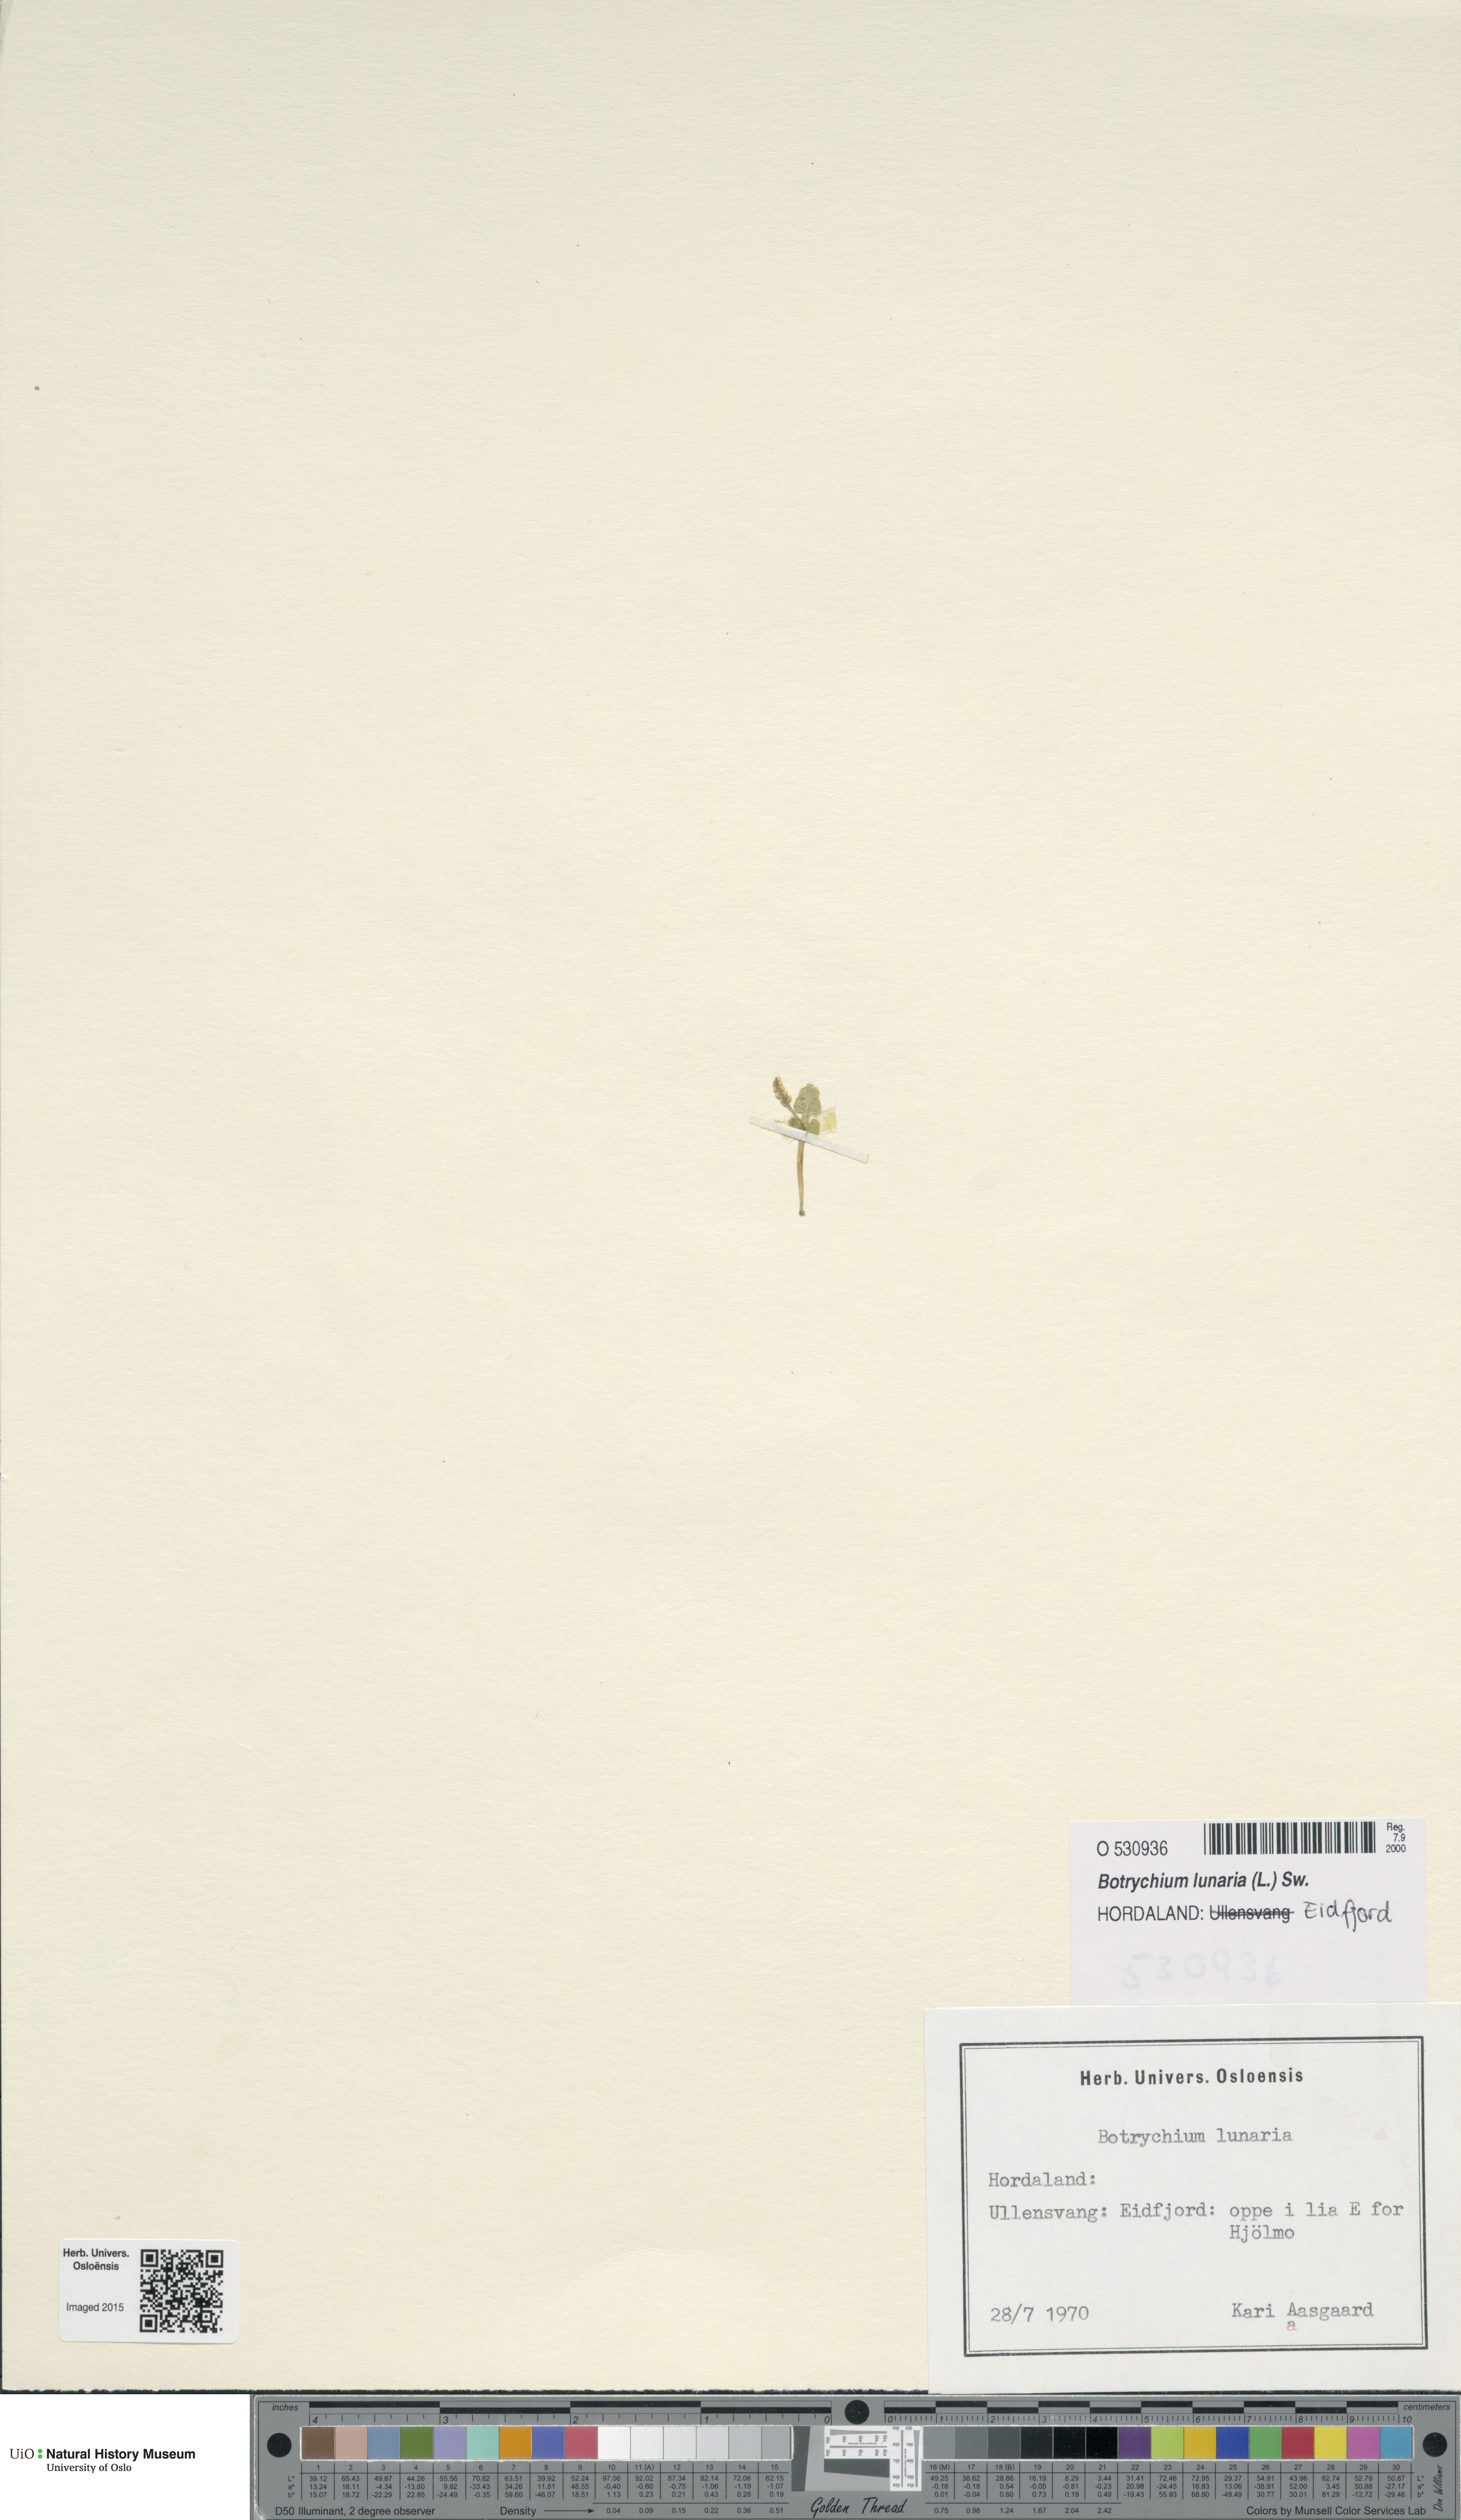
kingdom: Plantae
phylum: Tracheophyta
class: Polypodiopsida
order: Ophioglossales
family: Ophioglossaceae
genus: Botrychium
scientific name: Botrychium lunaria
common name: Moonwort
